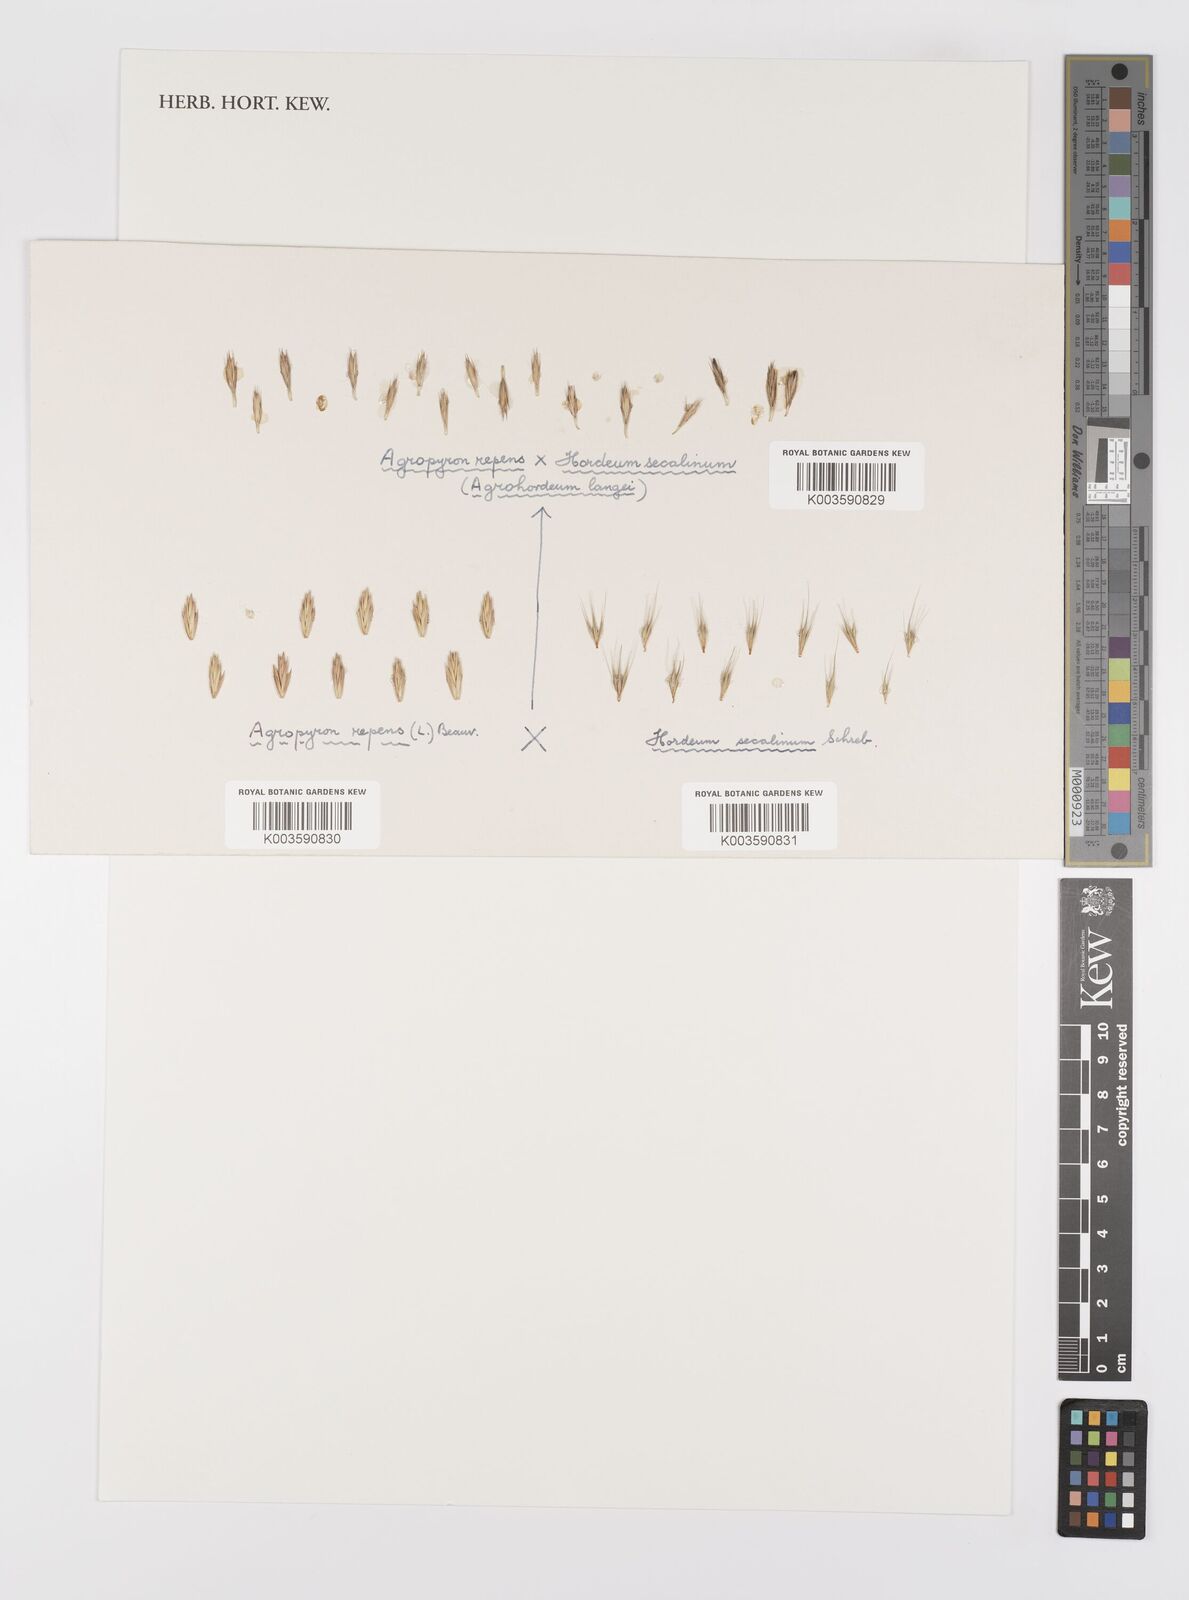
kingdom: Plantae
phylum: Tracheophyta
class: Liliopsida
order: Poales
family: Poaceae
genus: Elymus
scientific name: Elymus repens
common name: Quackgrass
